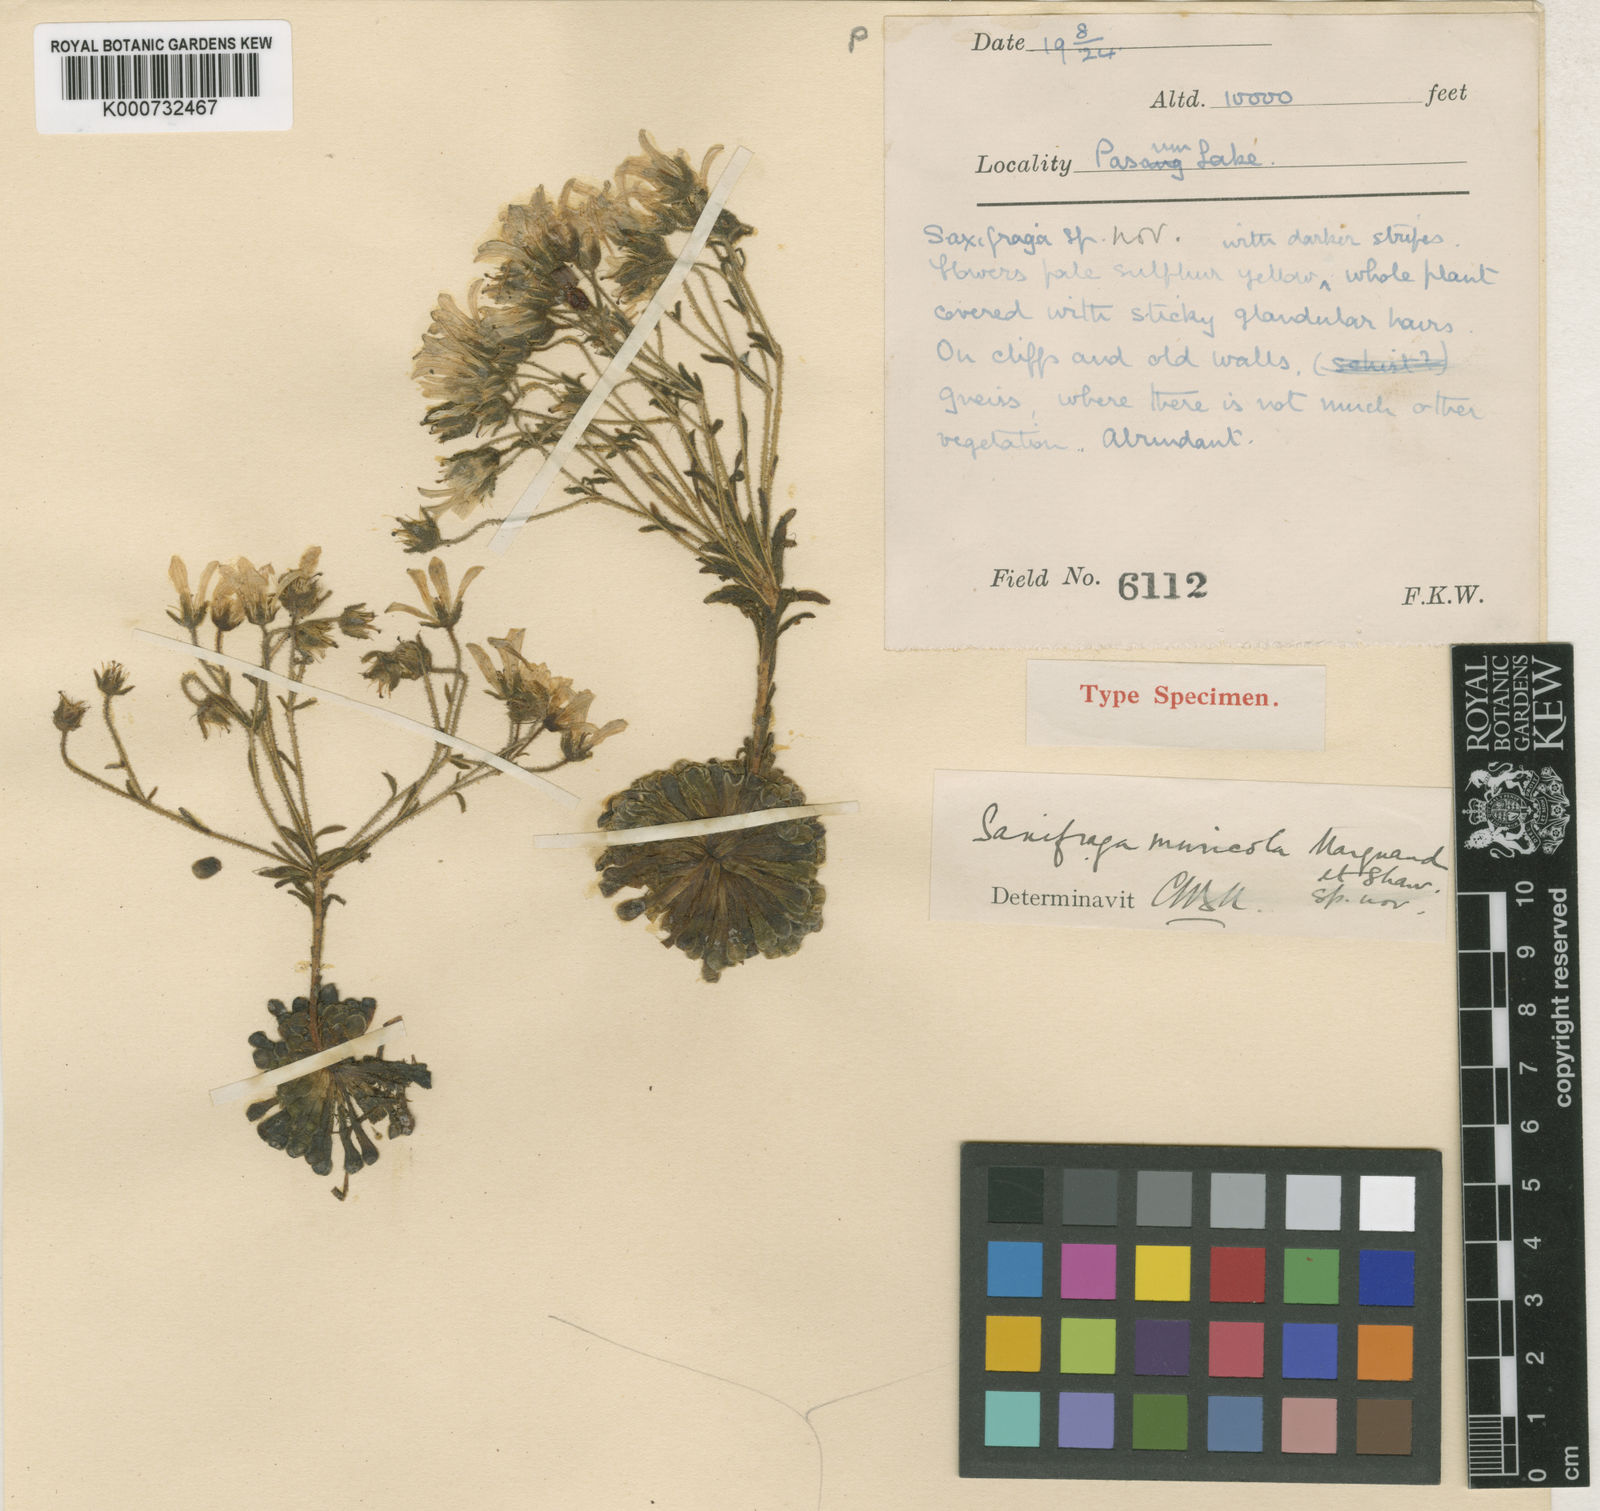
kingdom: Plantae
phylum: Tracheophyta
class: Magnoliopsida
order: Saxifragales
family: Saxifragaceae
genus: Saxifraga
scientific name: Saxifraga umbellulata
